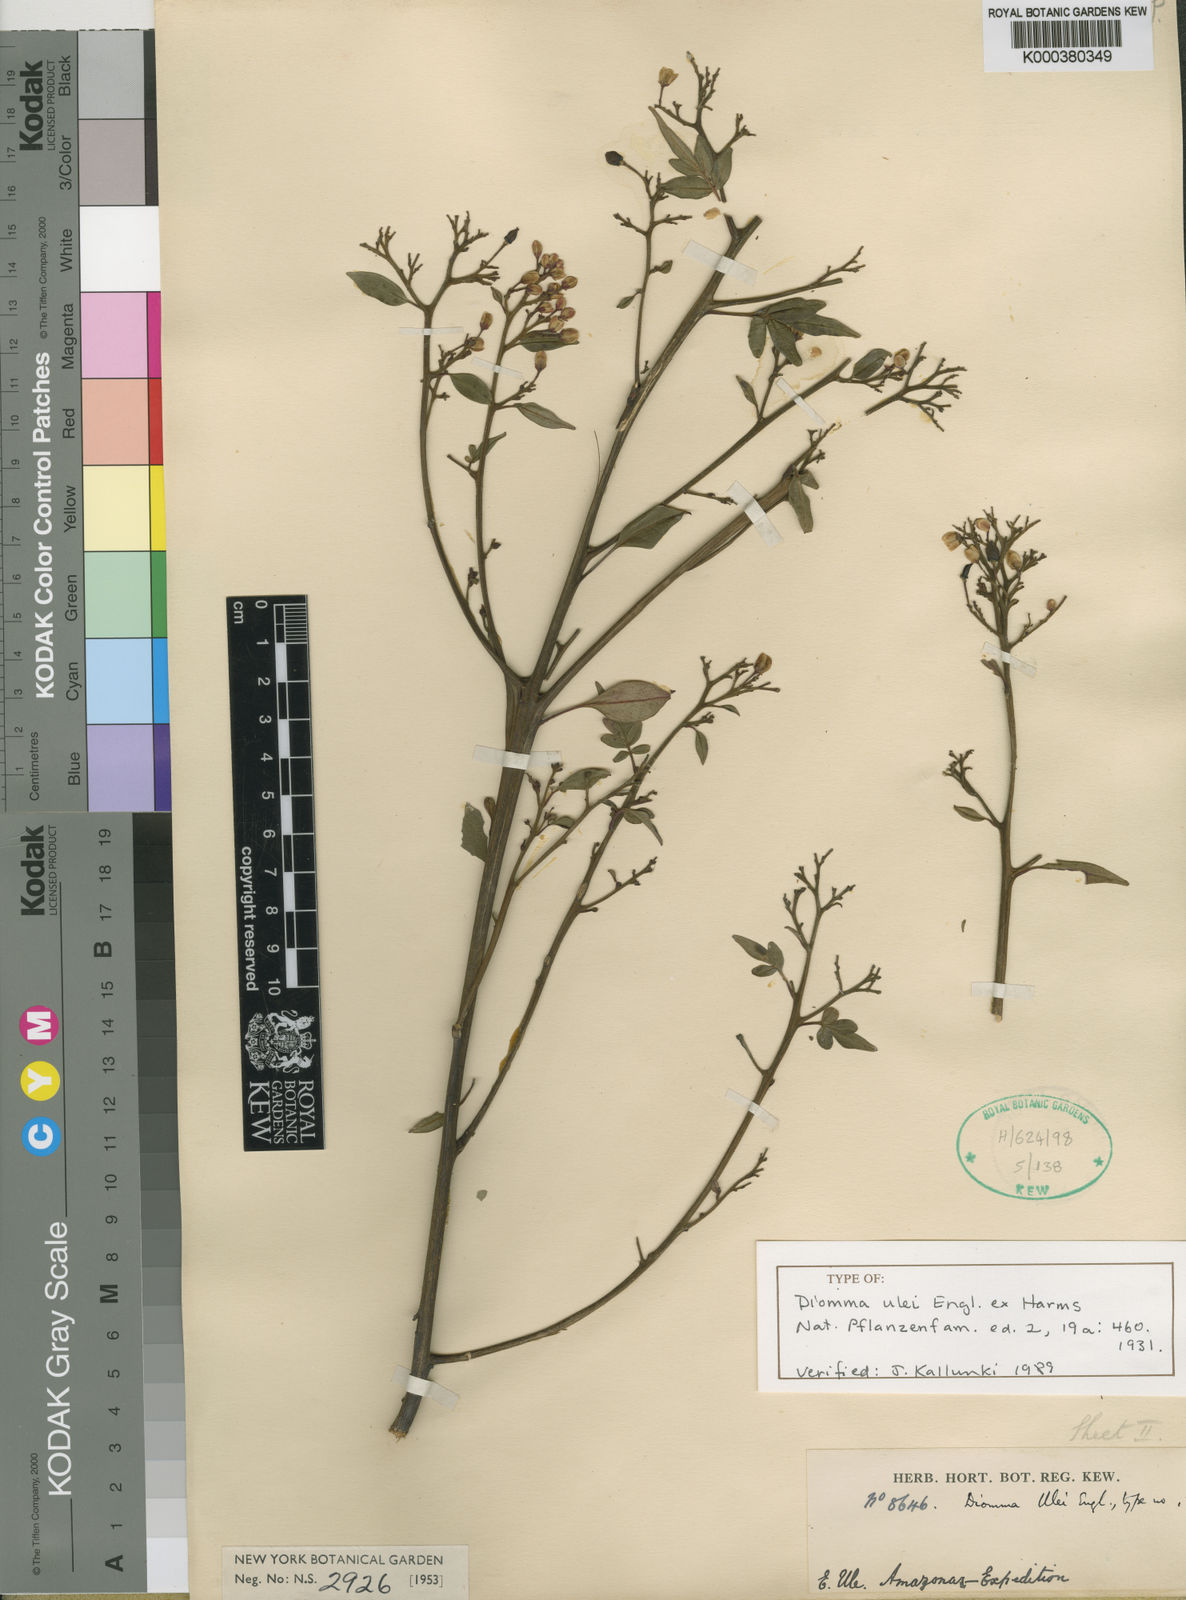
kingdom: Plantae
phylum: Tracheophyta
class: Magnoliopsida
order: Sapindales
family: Rutaceae
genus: Sohnreyia
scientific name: Sohnreyia ulei
